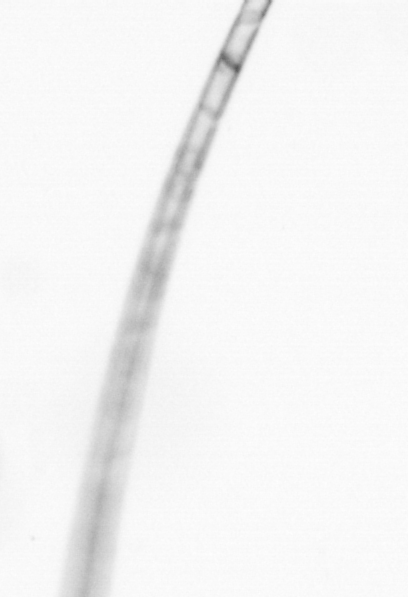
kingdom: Chromista
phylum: Ochrophyta
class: Bacillariophyceae
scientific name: Bacillariophyceae
